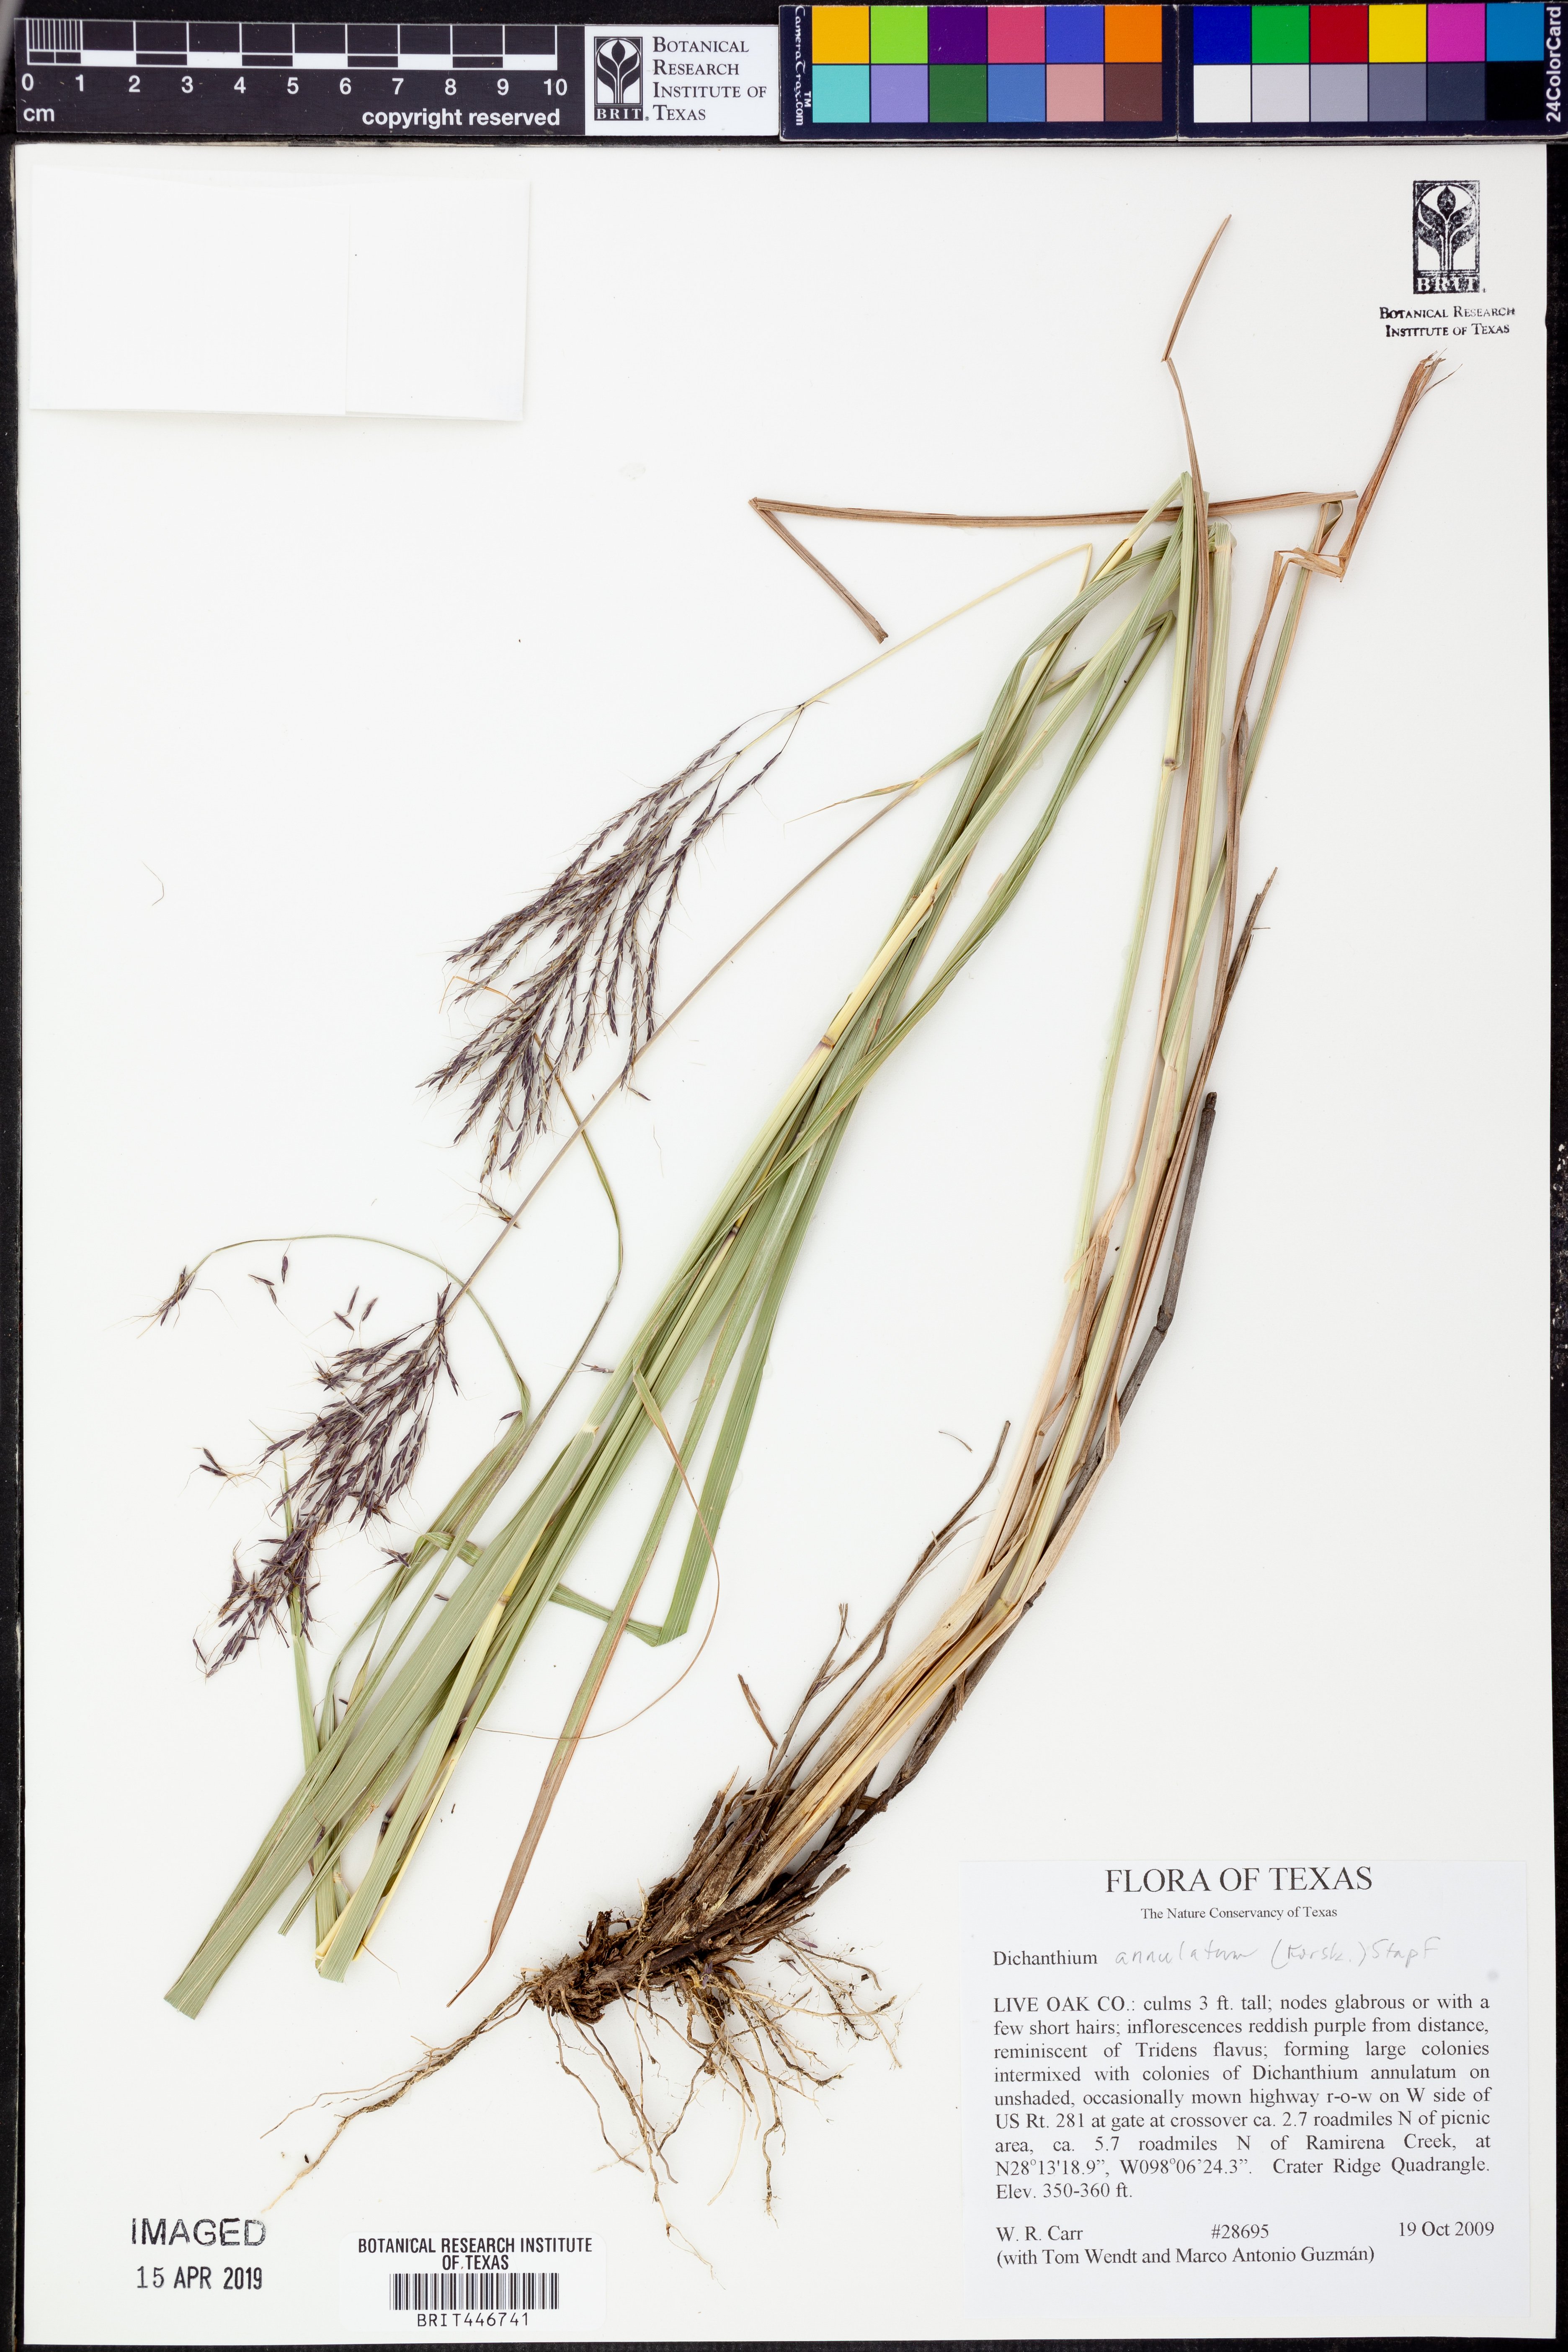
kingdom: Plantae
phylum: Tracheophyta
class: Liliopsida
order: Poales
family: Poaceae
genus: Dichanthium
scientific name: Dichanthium
